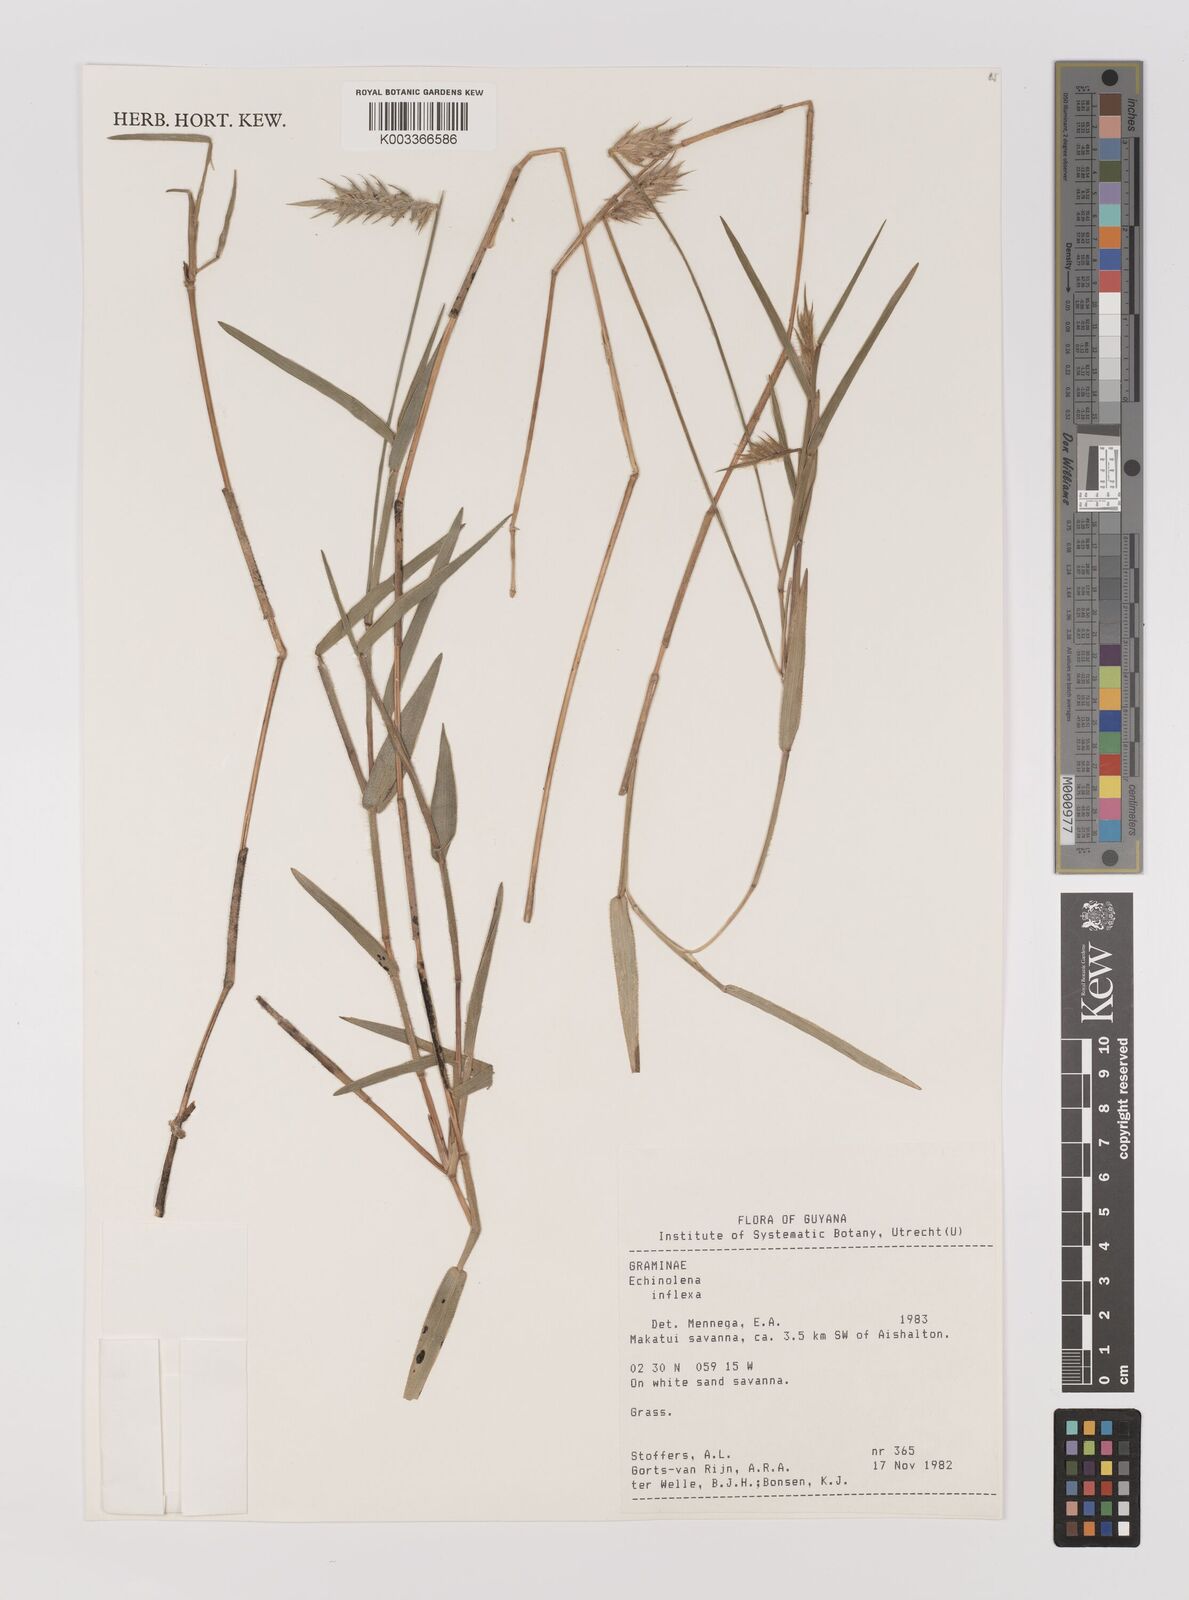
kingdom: Plantae
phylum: Tracheophyta
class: Liliopsida
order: Poales
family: Poaceae
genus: Echinolaena
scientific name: Echinolaena inflexa
